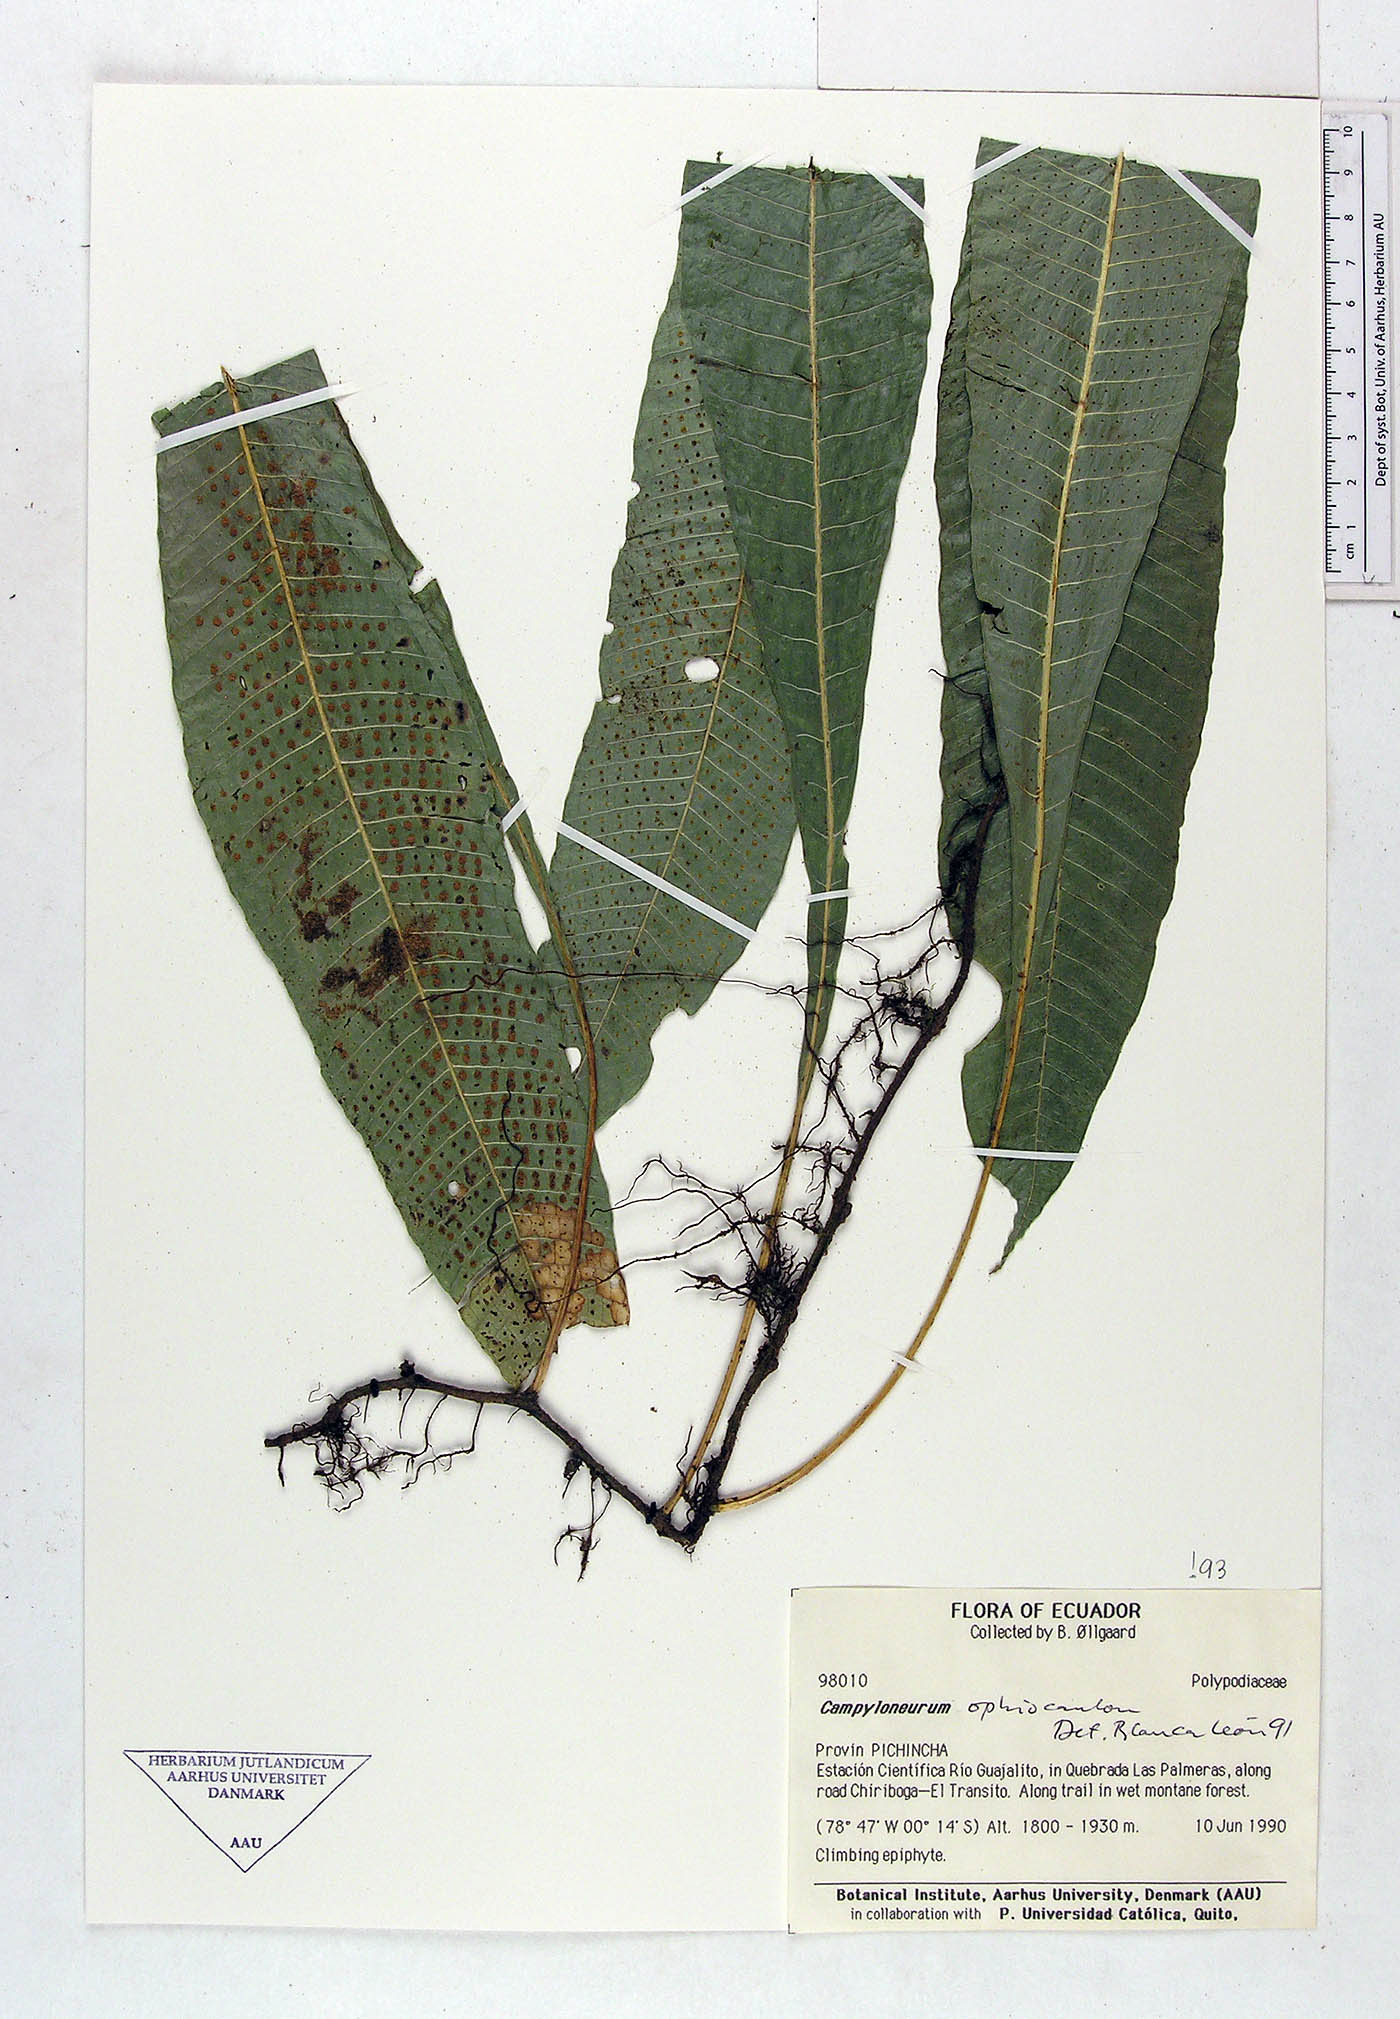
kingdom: Plantae
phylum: Tracheophyta
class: Polypodiopsida
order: Polypodiales
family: Polypodiaceae
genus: Campyloneurum
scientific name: Campyloneurum ophiocaulon
